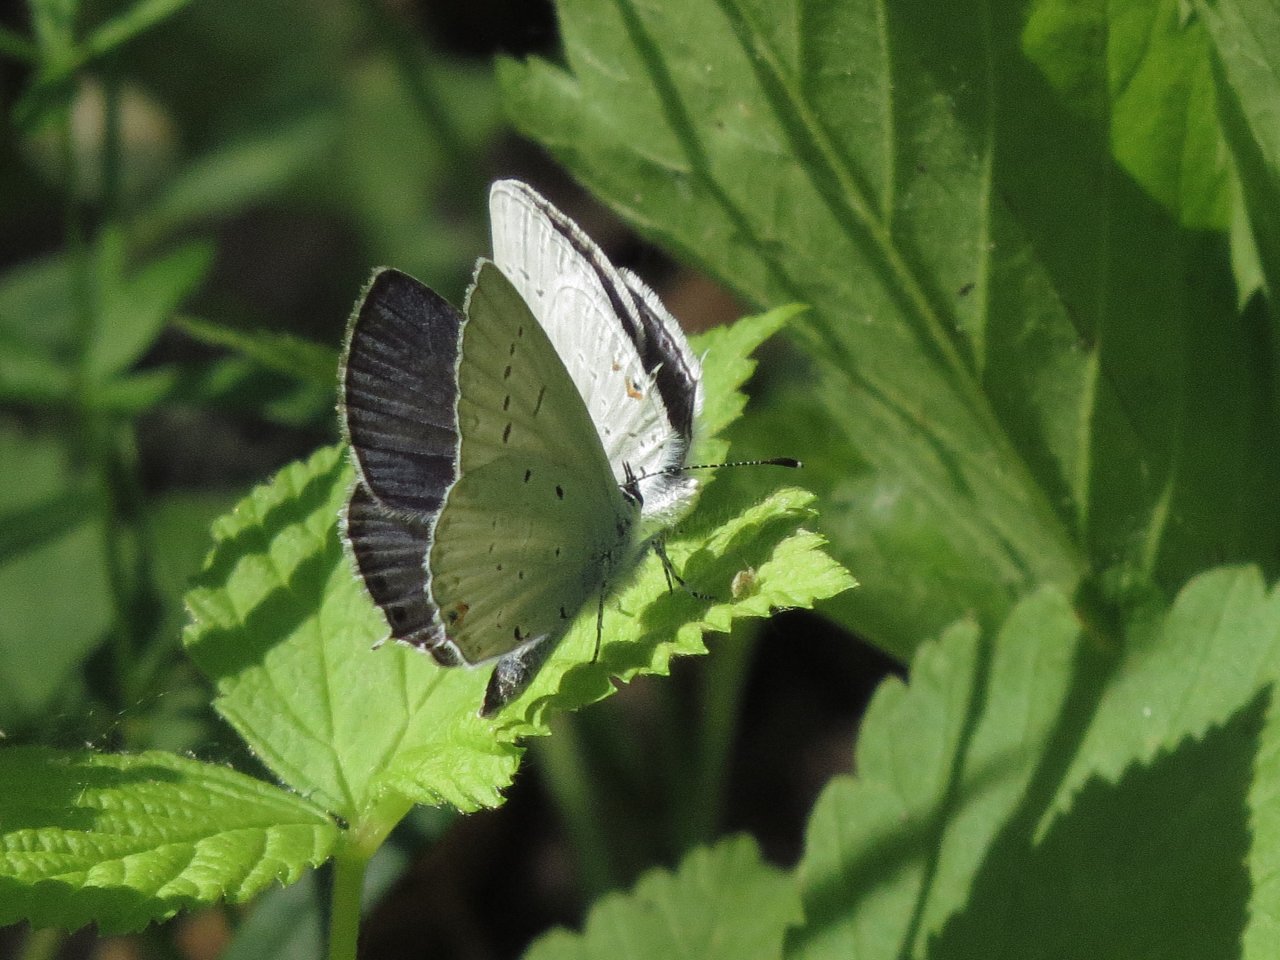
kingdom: Animalia
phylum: Arthropoda
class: Insecta
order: Lepidoptera
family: Lycaenidae
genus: Elkalyce
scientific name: Elkalyce amyntula
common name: Western Tailed-Blue
